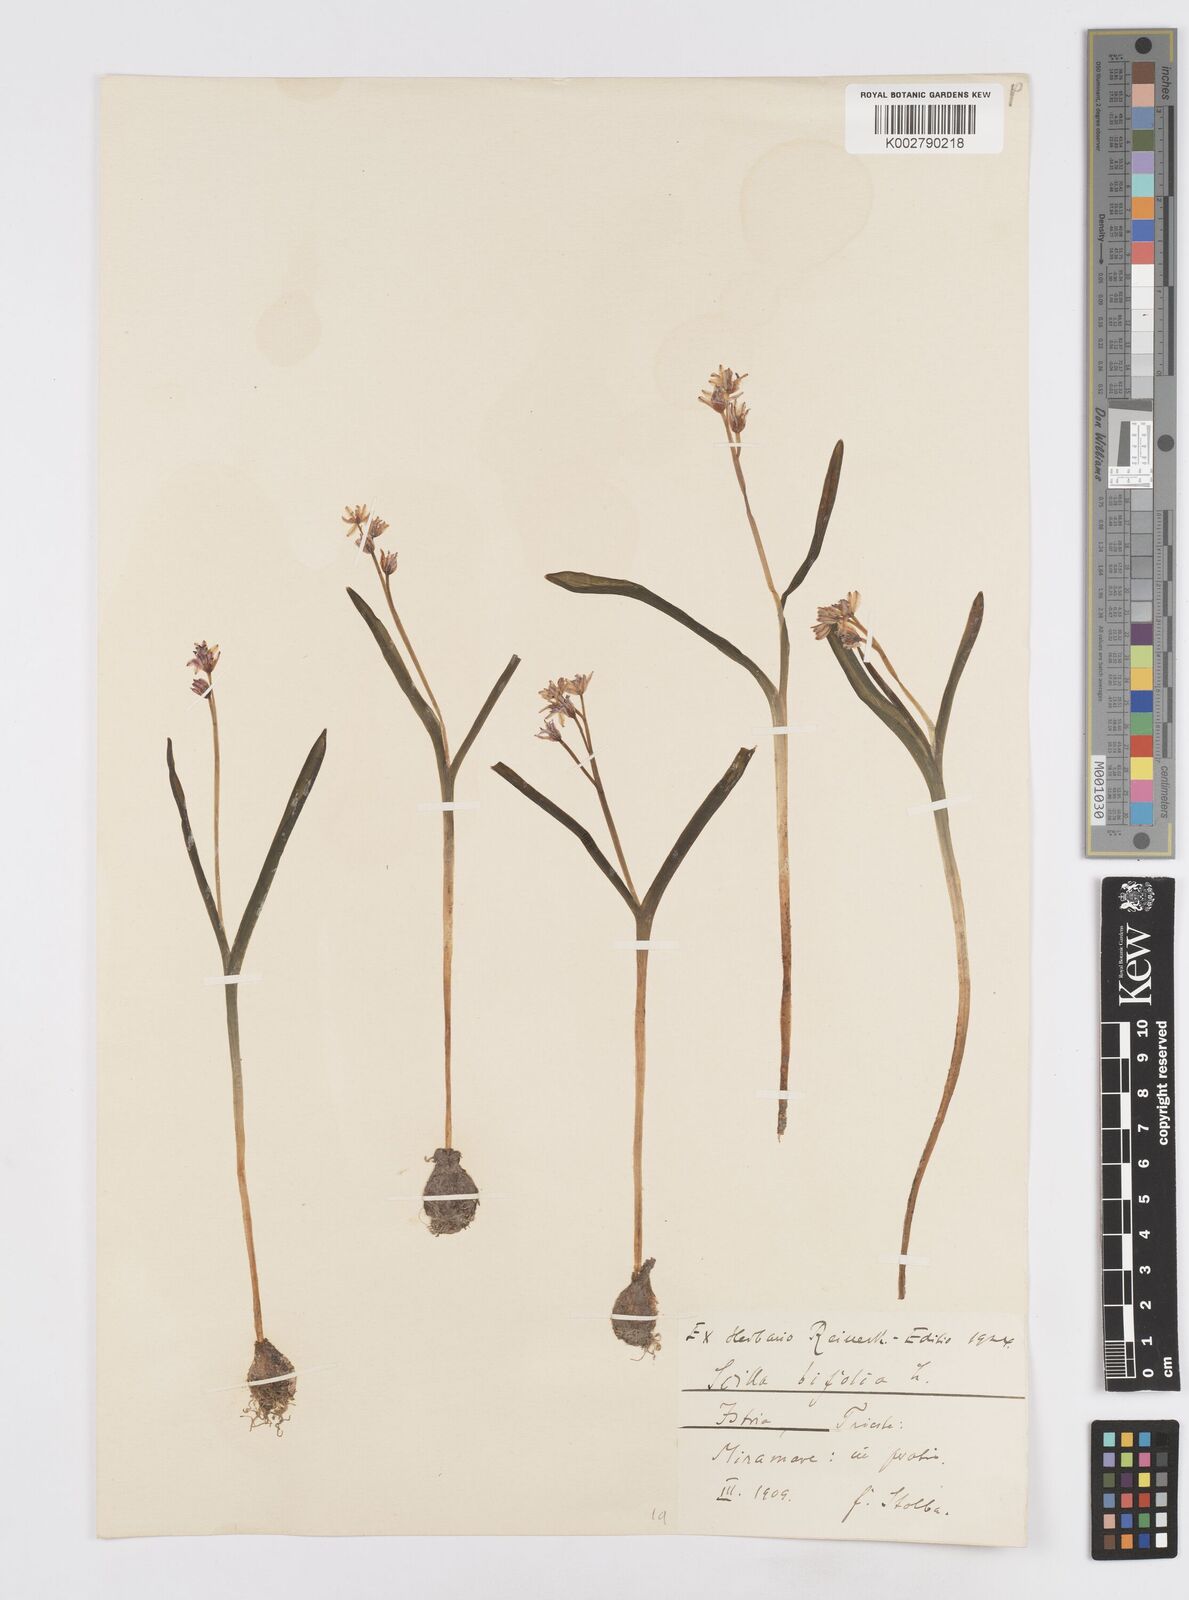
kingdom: Plantae
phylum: Tracheophyta
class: Liliopsida
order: Asparagales
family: Asparagaceae
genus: Scilla
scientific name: Scilla bifolia
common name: Alpine squill
